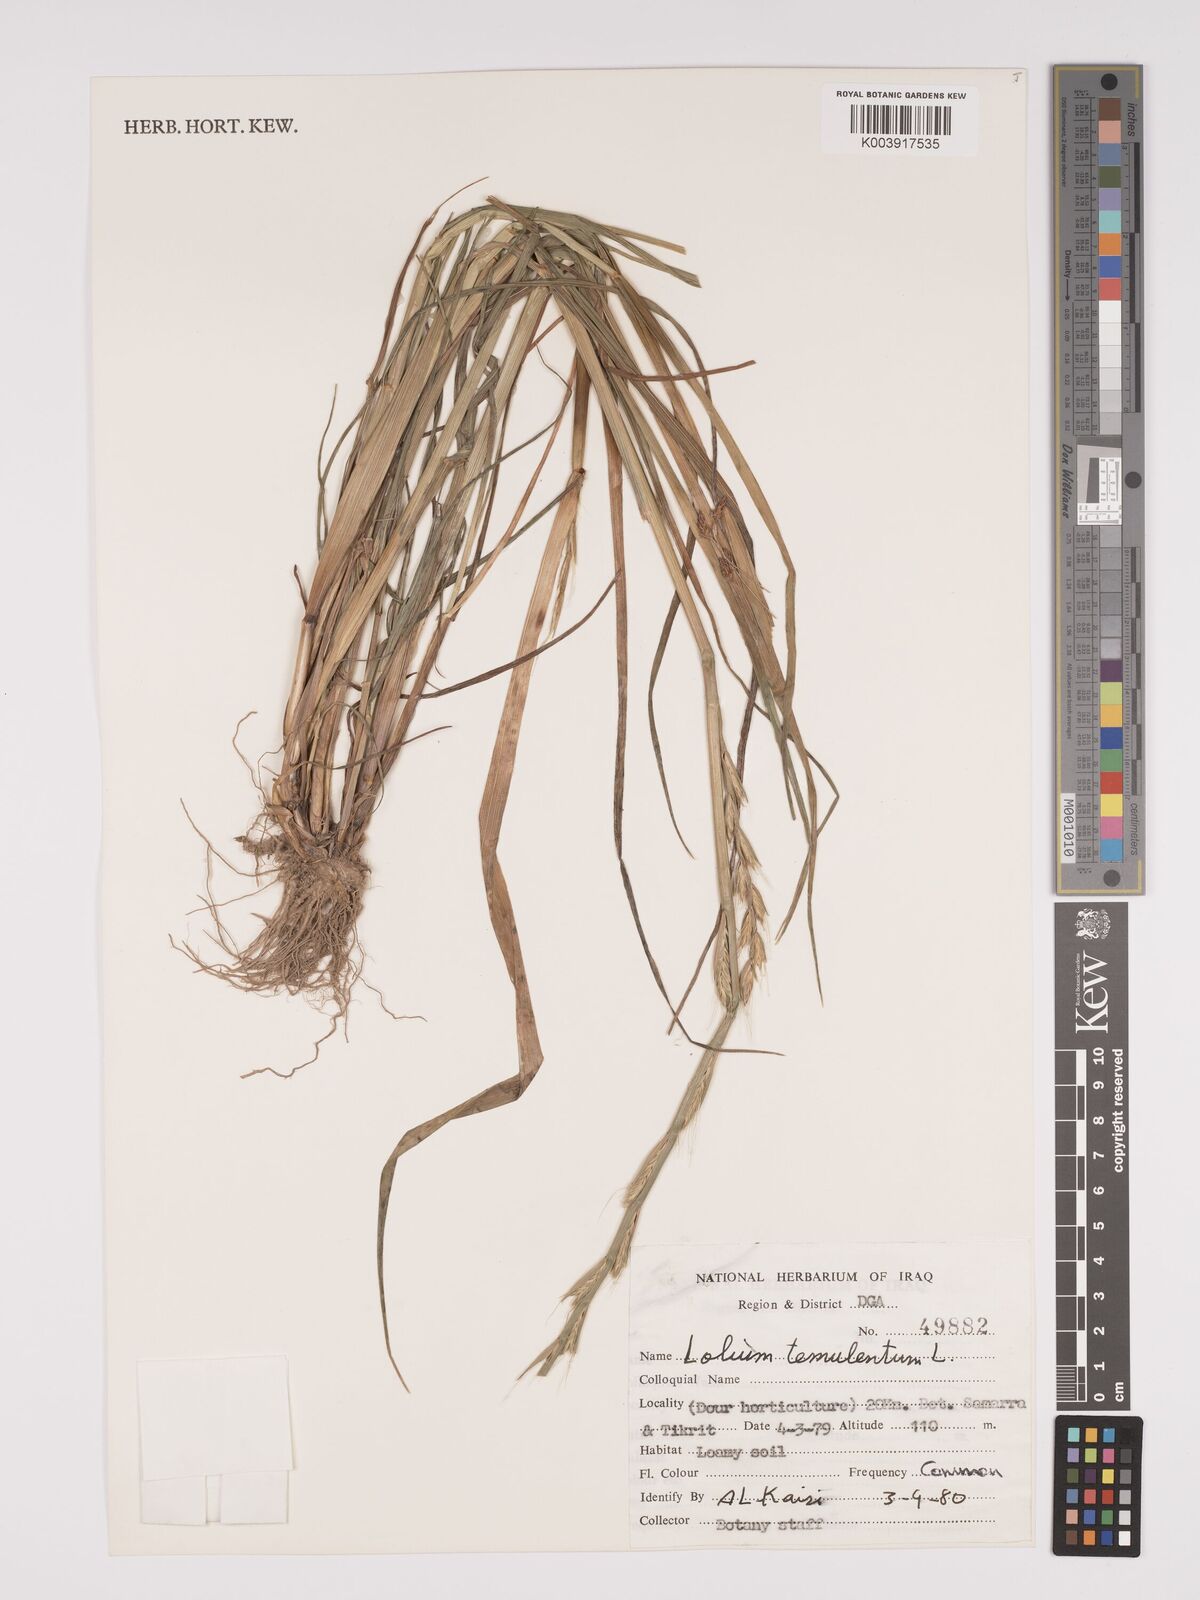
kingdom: Plantae
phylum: Tracheophyta
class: Liliopsida
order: Poales
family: Poaceae
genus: Lolium
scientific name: Lolium temulentum
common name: Darnel
